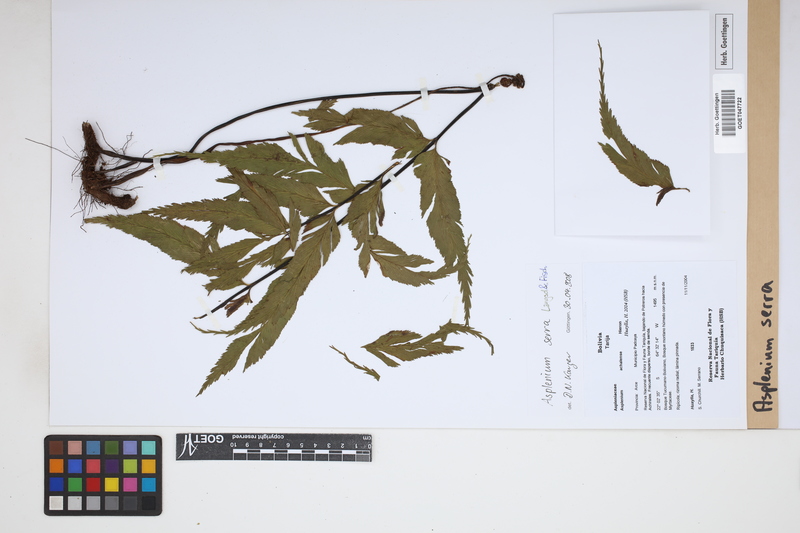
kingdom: Plantae
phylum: Tracheophyta
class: Polypodiopsida
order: Polypodiales
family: Aspleniaceae
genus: Asplenium
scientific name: Asplenium serra
